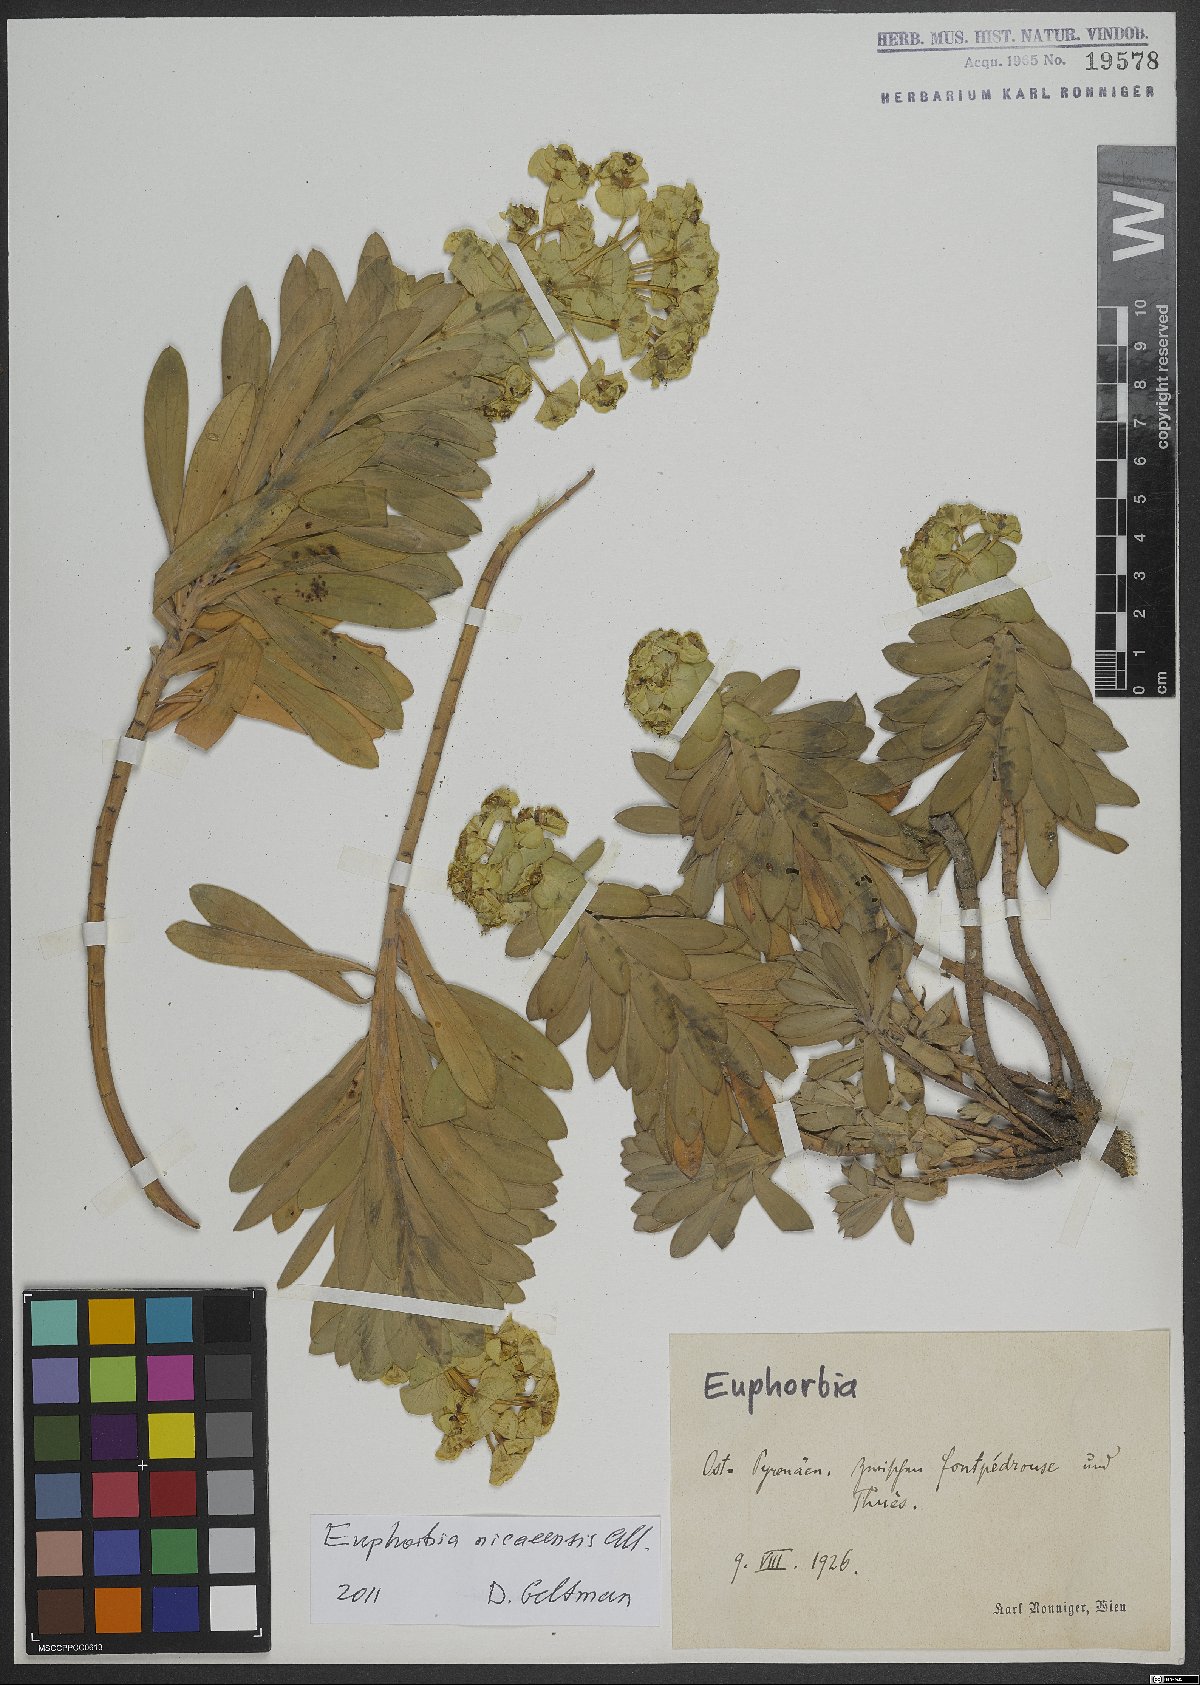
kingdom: Plantae
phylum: Tracheophyta
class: Magnoliopsida
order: Malpighiales
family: Euphorbiaceae
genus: Euphorbia
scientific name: Euphorbia nicaeensis
